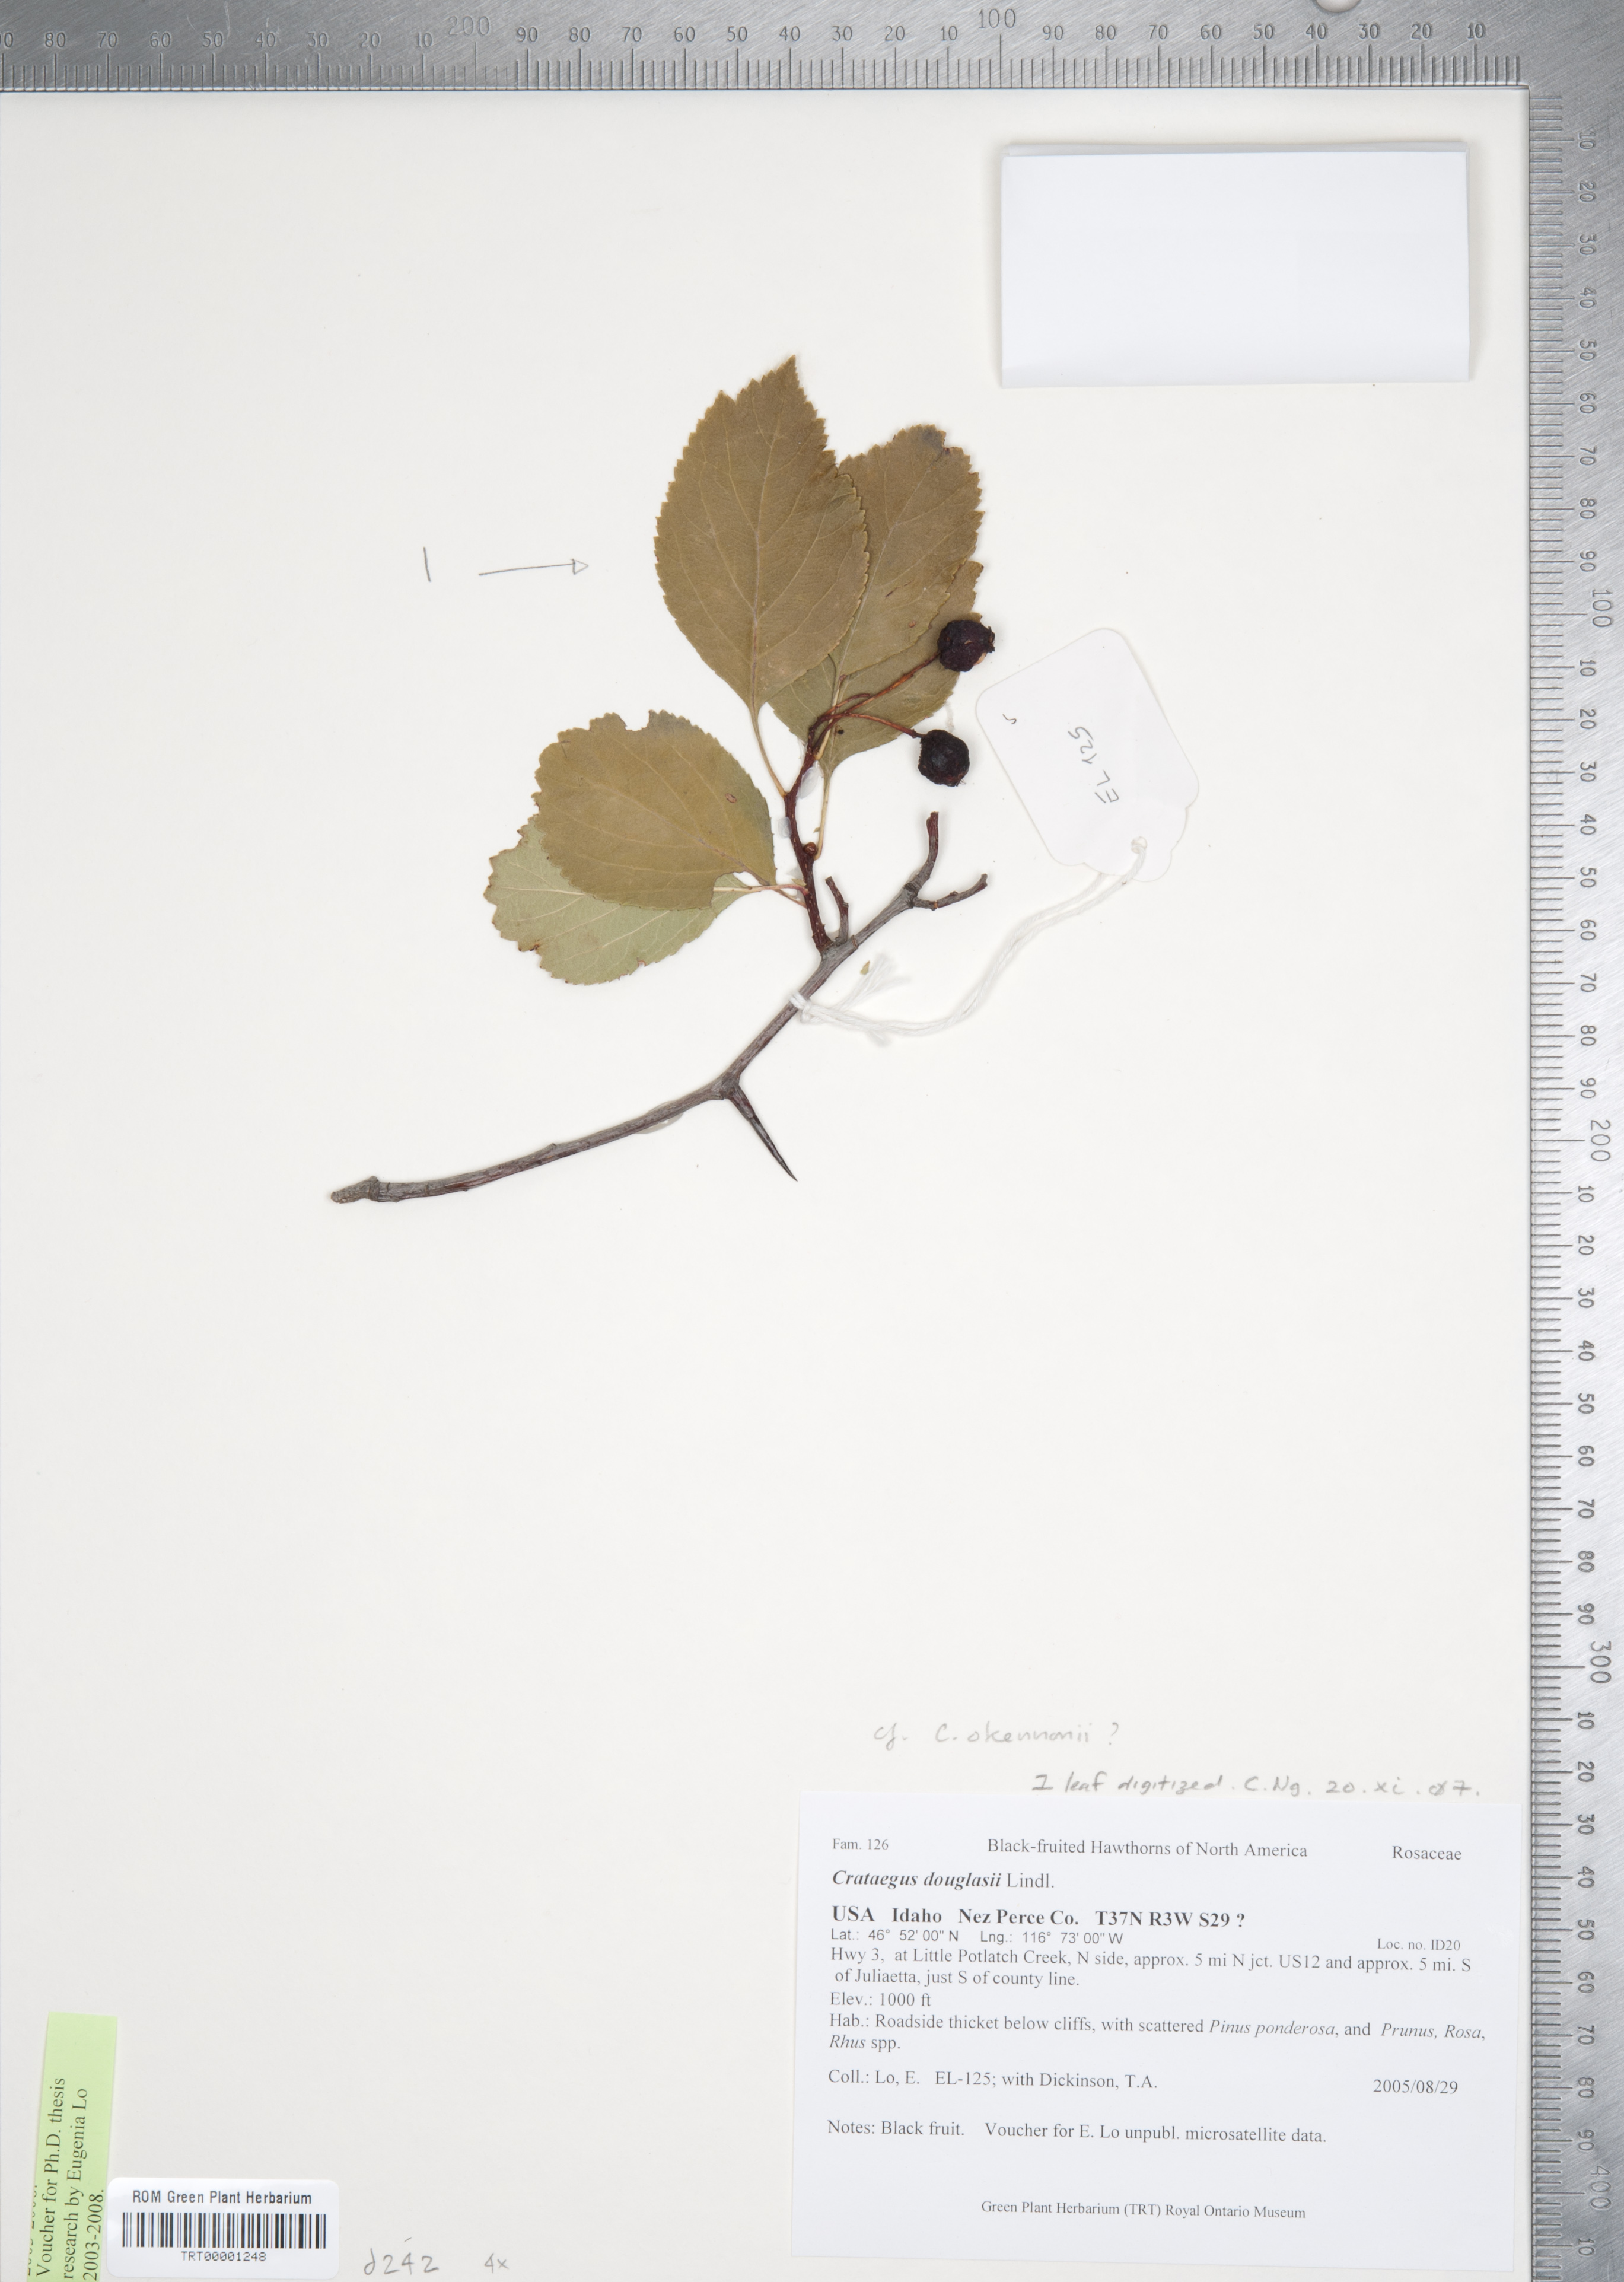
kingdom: Plantae
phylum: Tracheophyta
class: Magnoliopsida
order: Rosales
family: Rosaceae
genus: Crataegus
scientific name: Crataegus douglasii
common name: Black hawthorn
